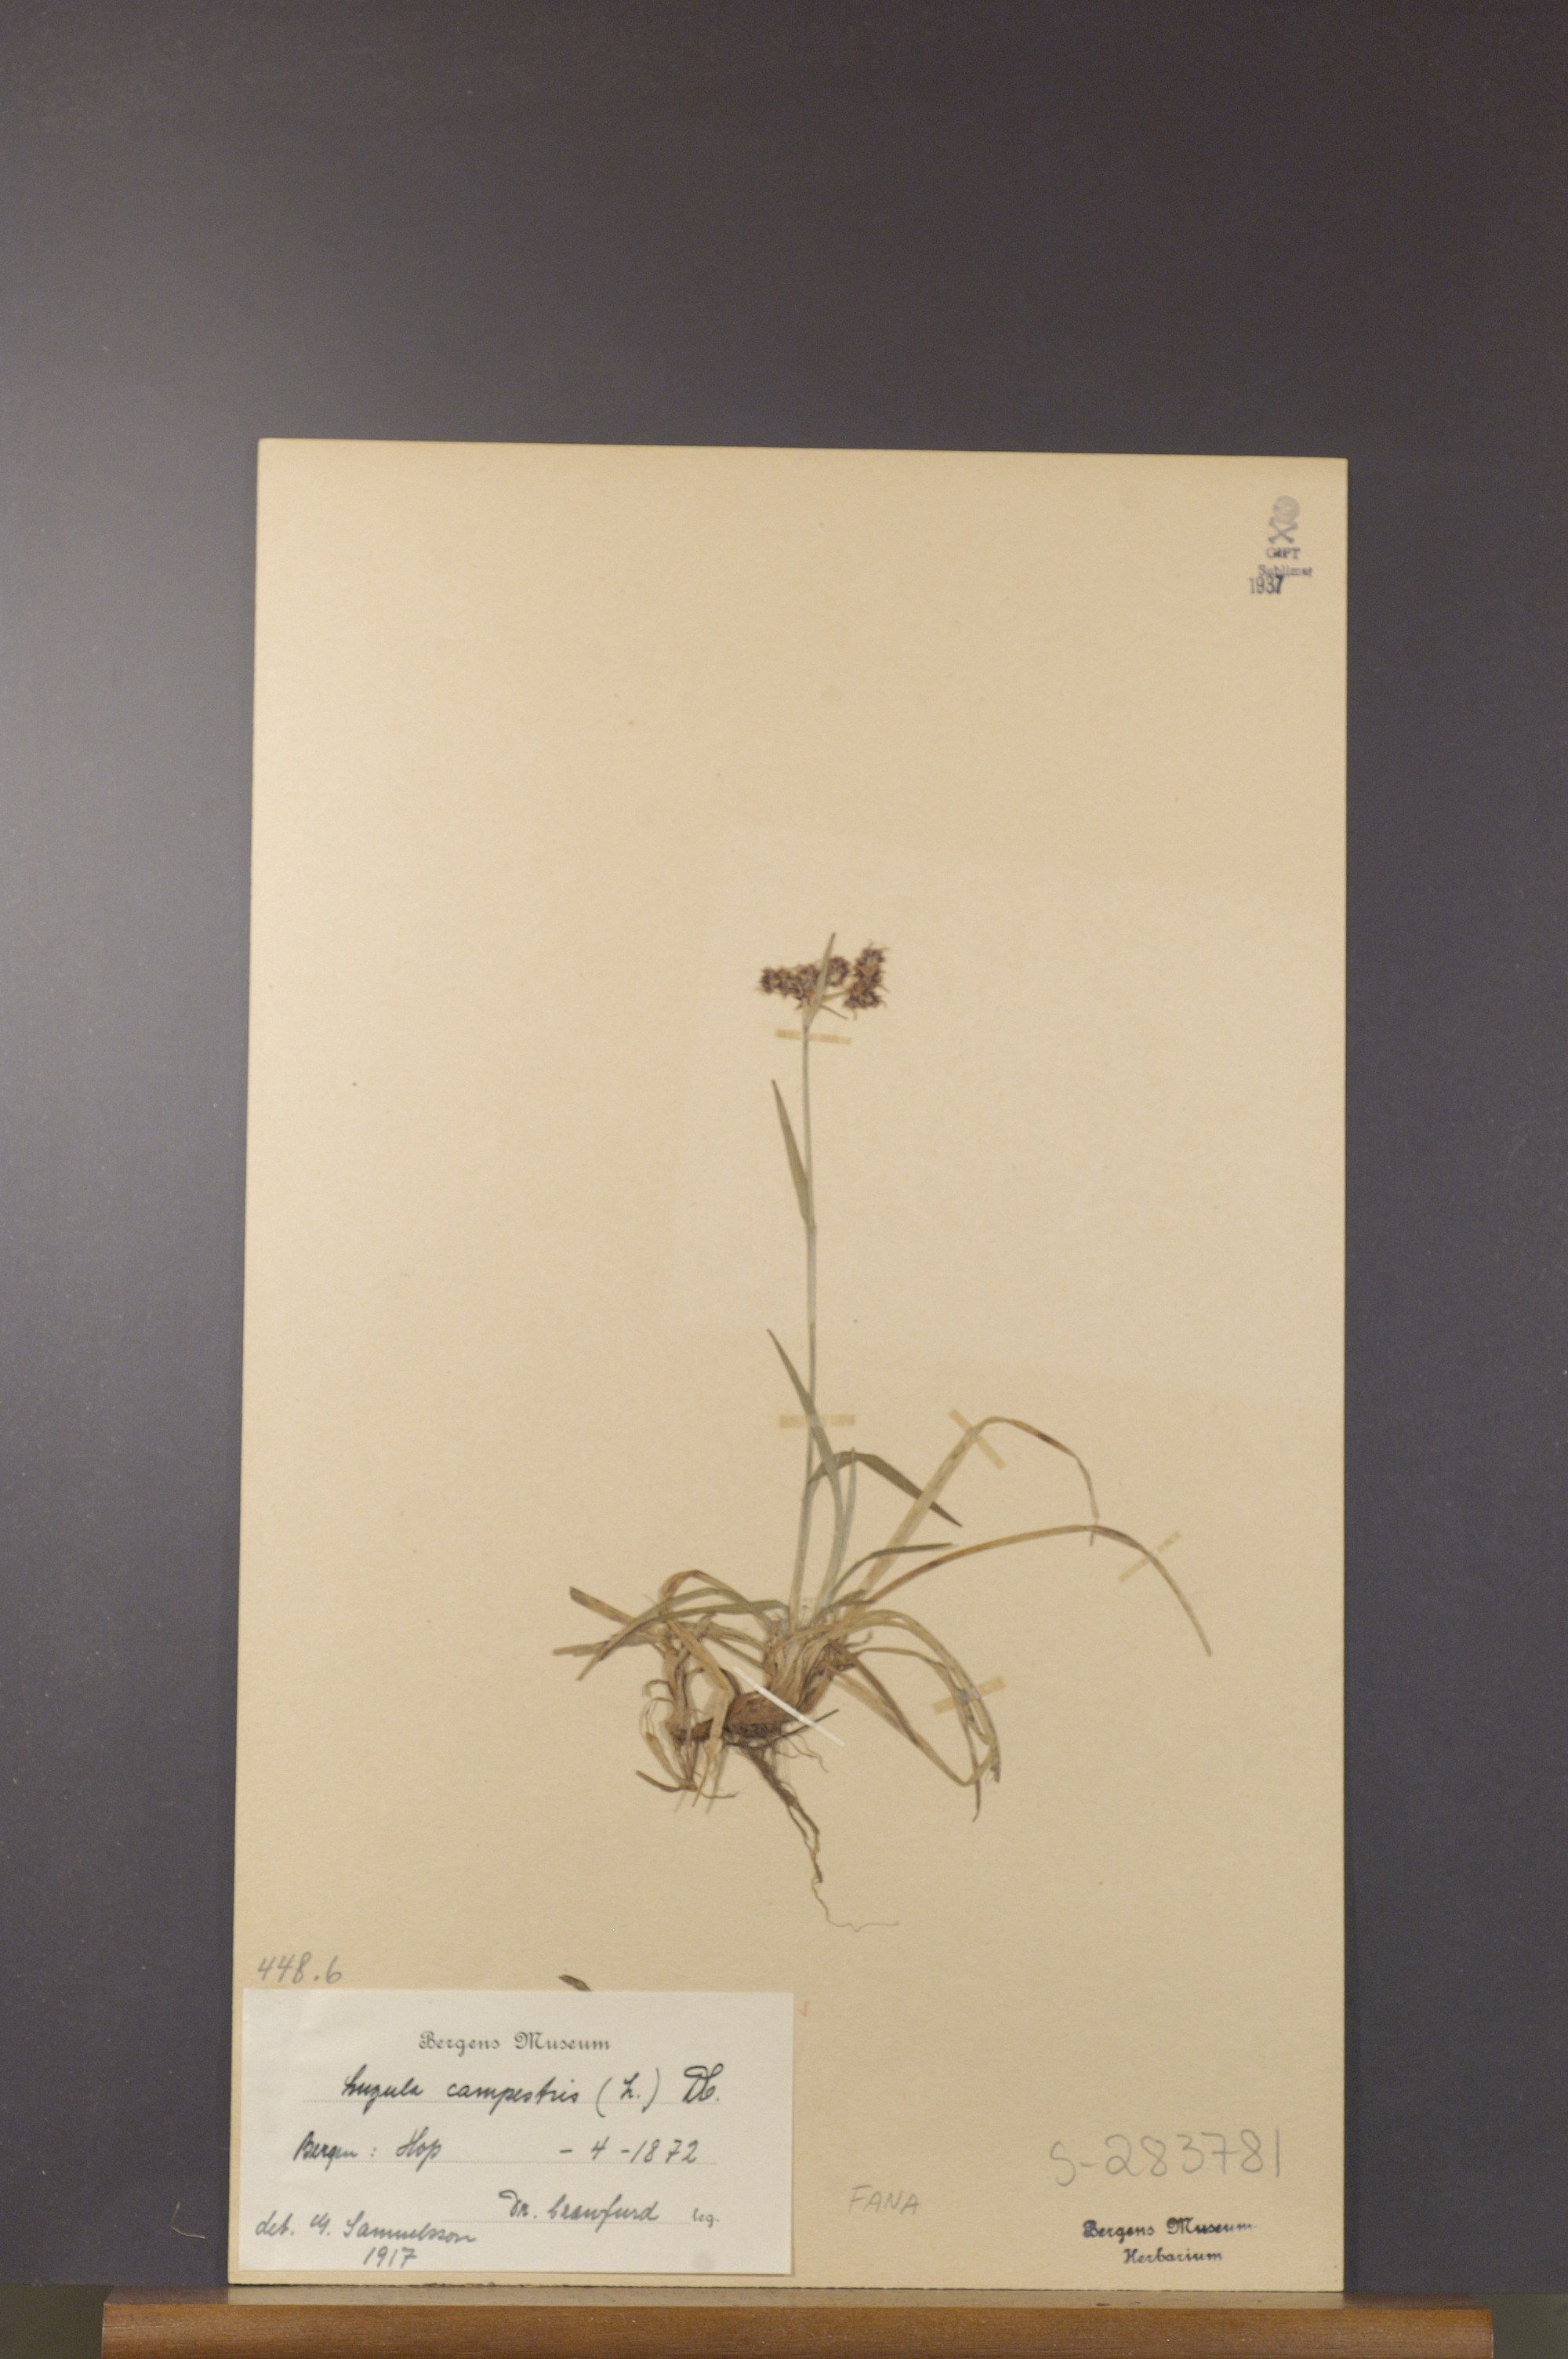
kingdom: Plantae
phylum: Tracheophyta
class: Liliopsida
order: Poales
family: Juncaceae
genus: Luzula
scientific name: Luzula campestris
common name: Field wood-rush
